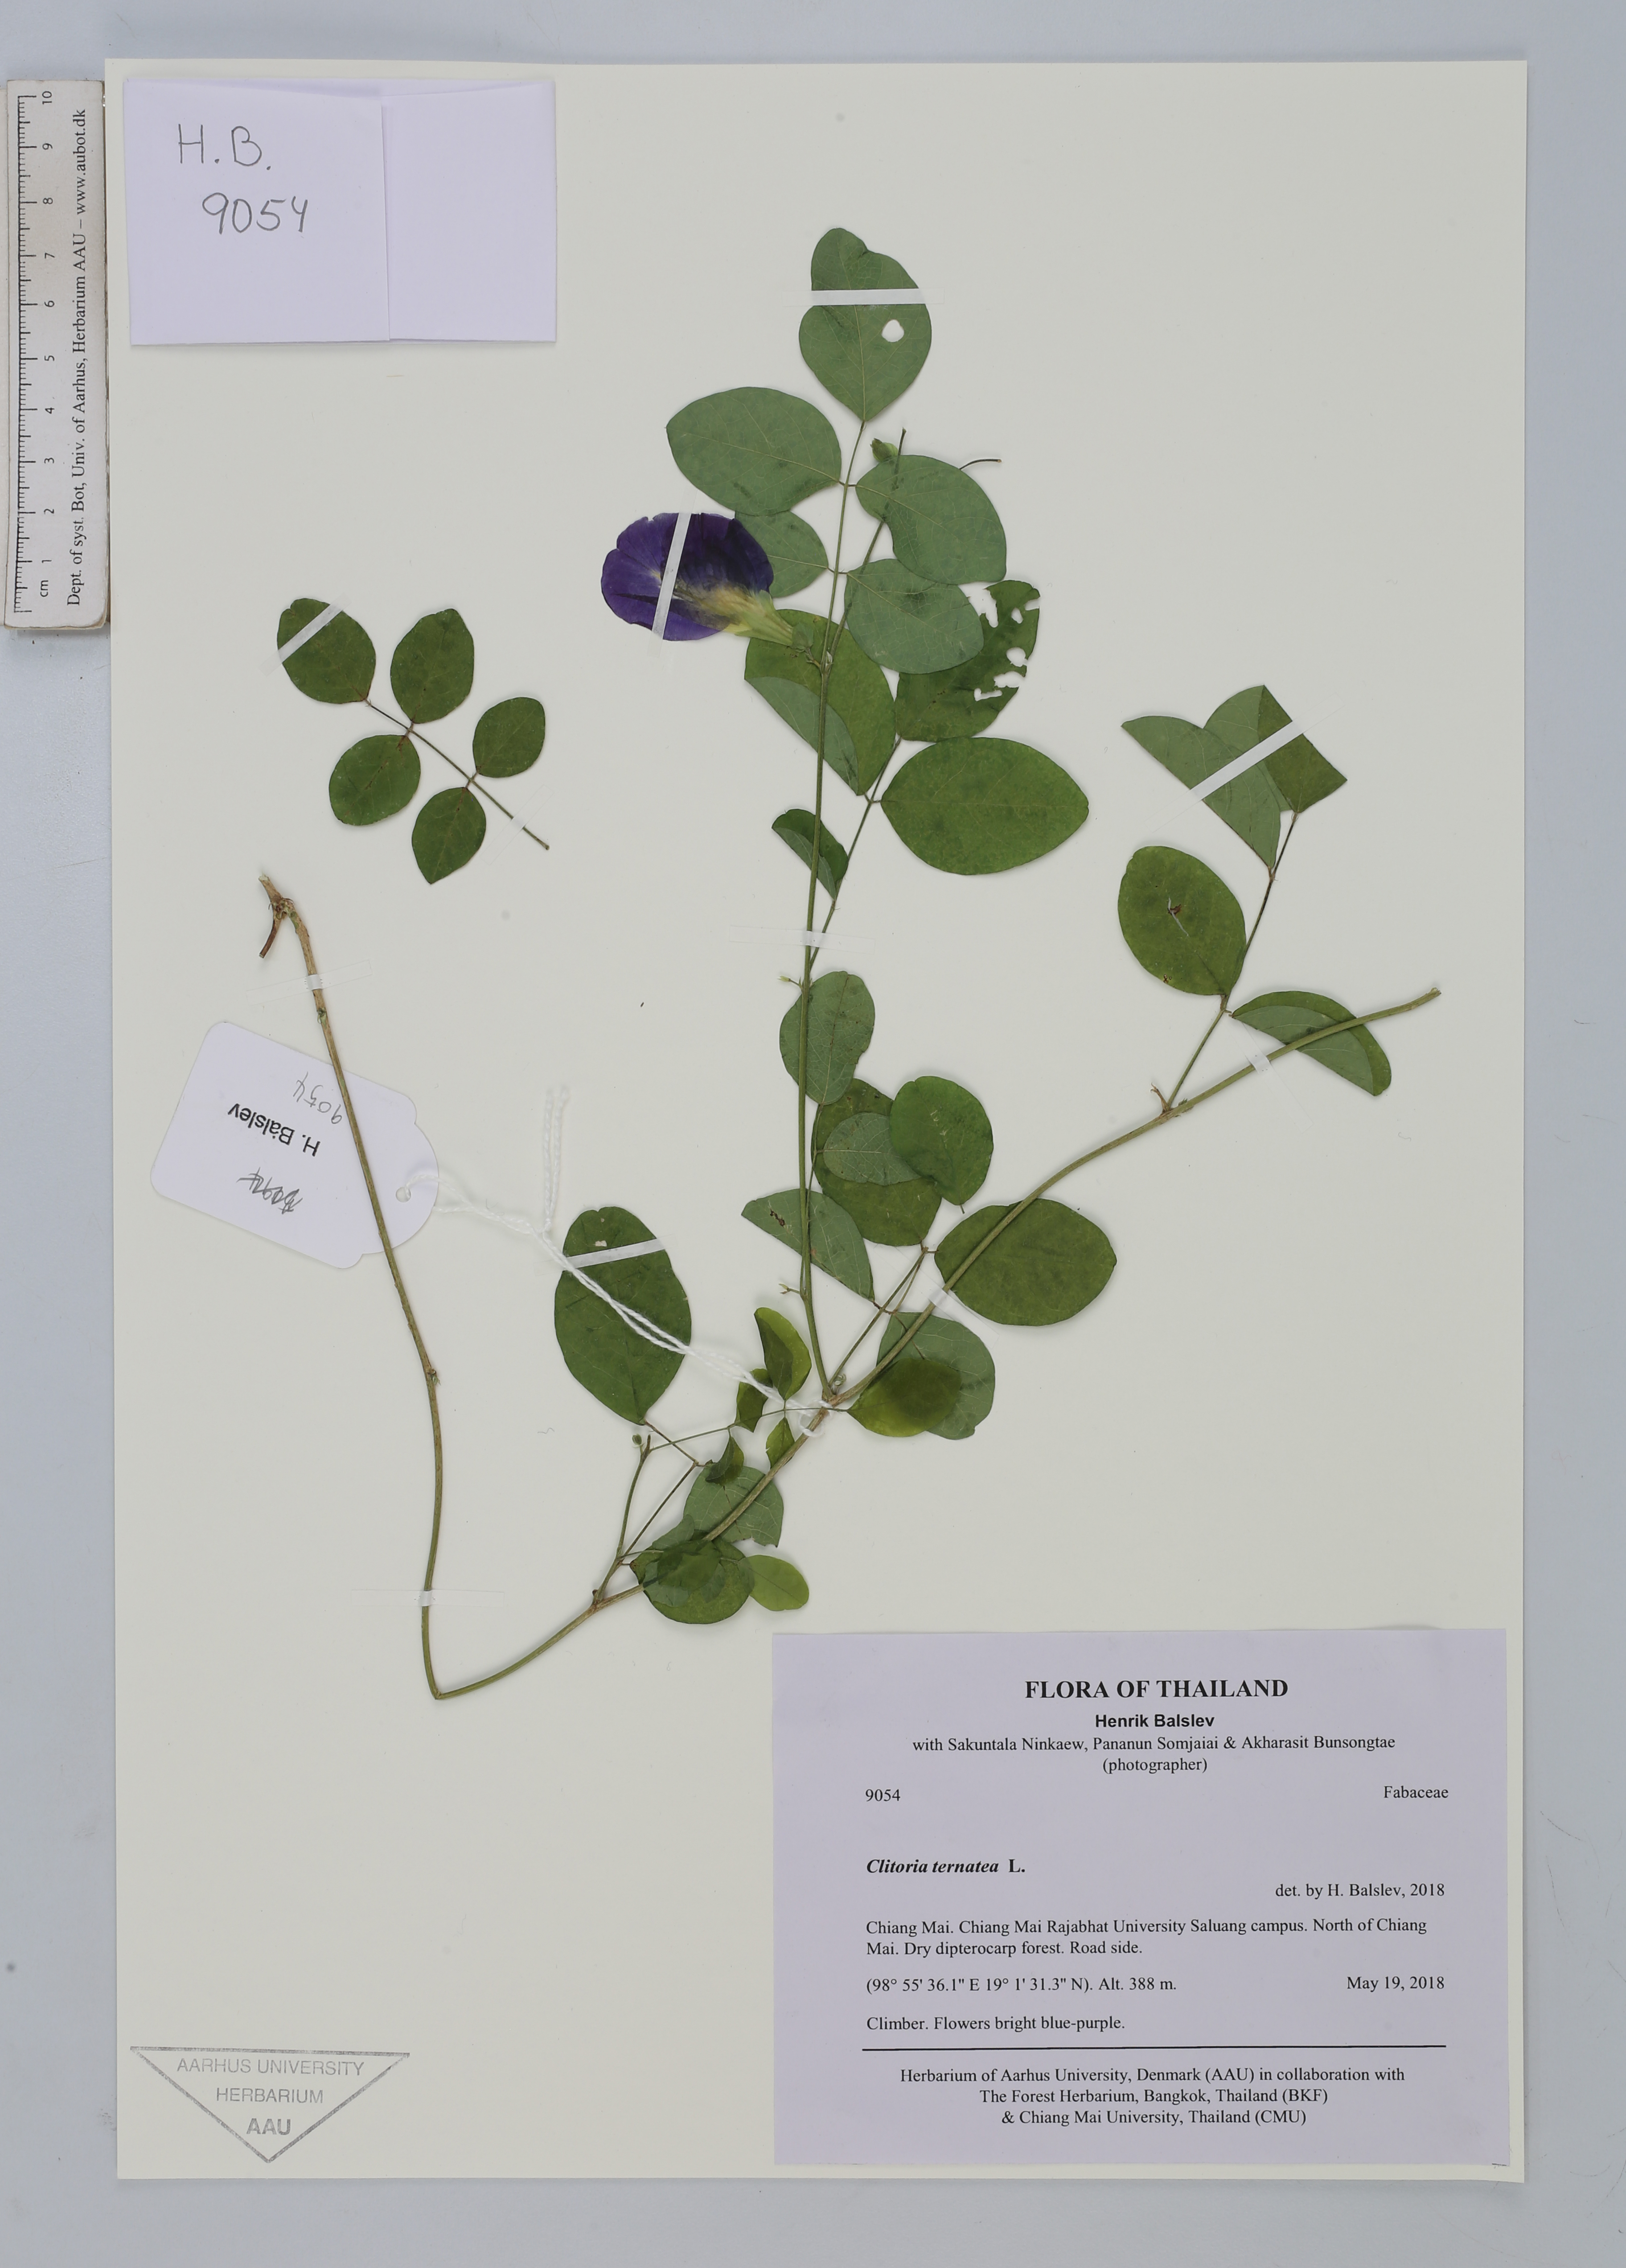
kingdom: Plantae
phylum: Tracheophyta
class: Magnoliopsida
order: Fabales
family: Fabaceae
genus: Clitoria
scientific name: Clitoria ternatea
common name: Asian pigeonwings
